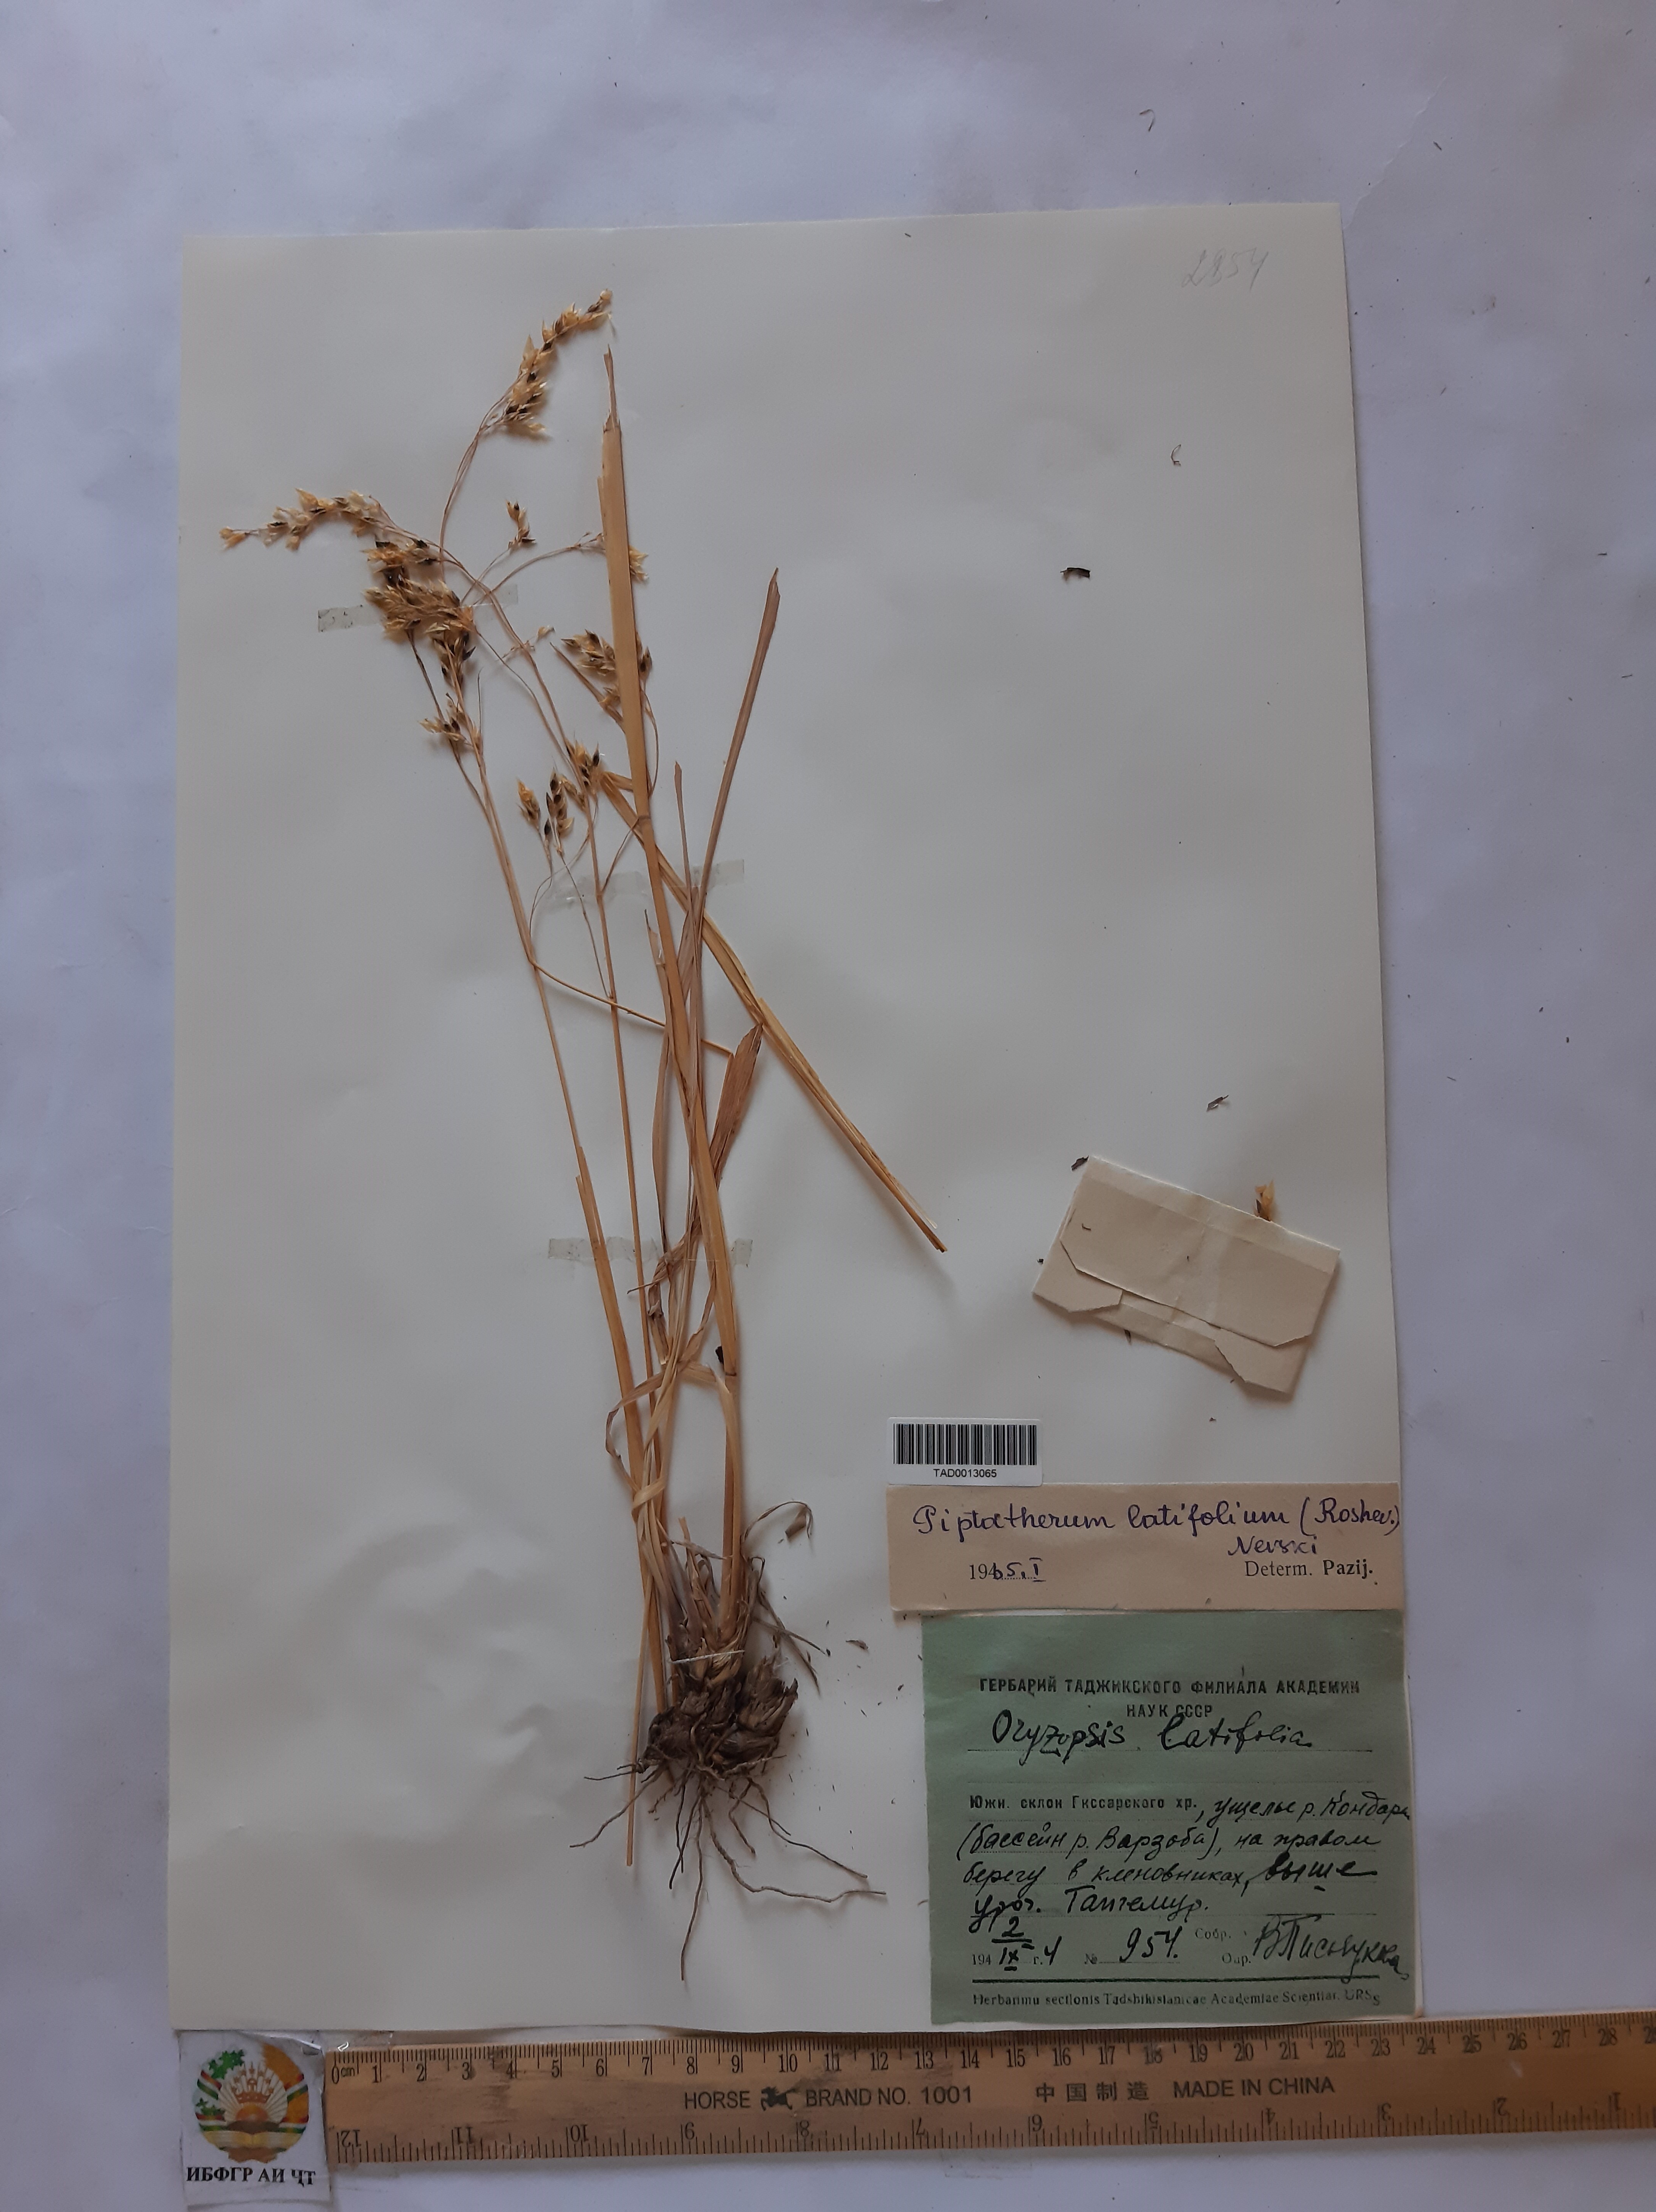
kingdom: Plantae
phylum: Tracheophyta
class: Liliopsida
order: Poales
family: Poaceae
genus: Piptatherum
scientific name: Piptatherum laterale
